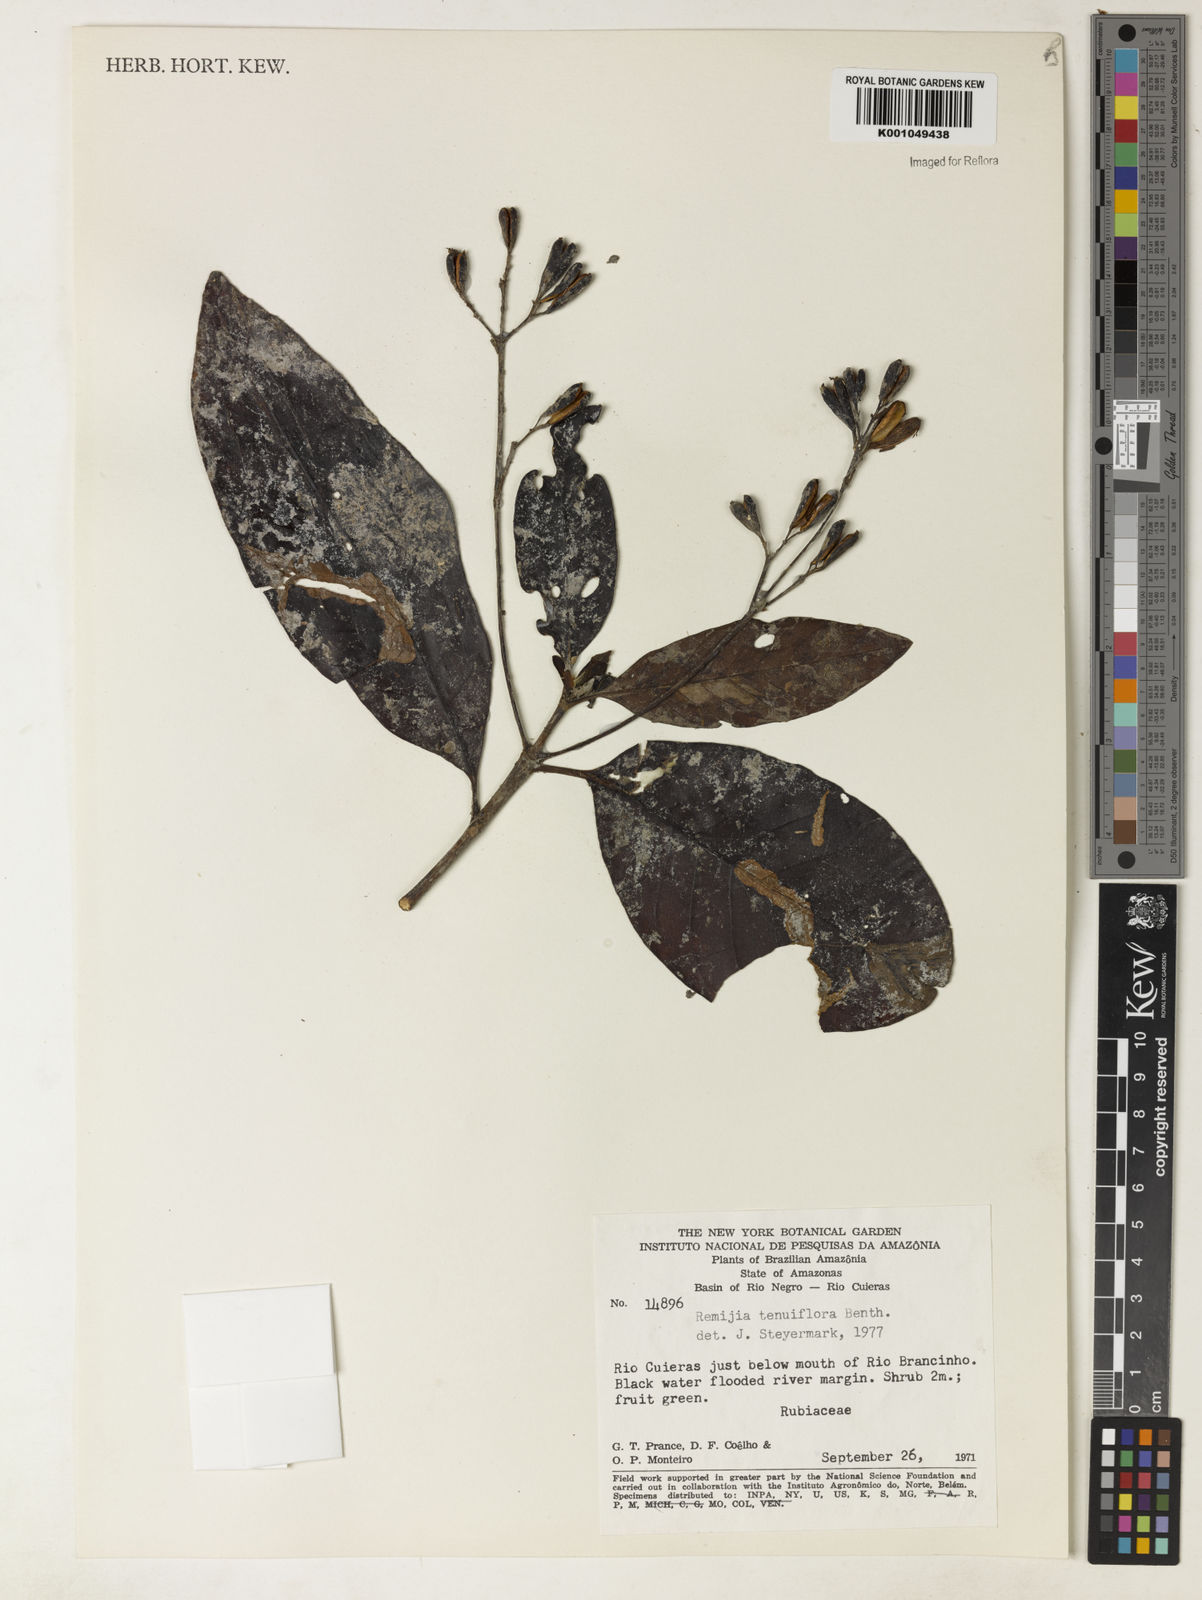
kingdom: Plantae
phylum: Tracheophyta
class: Magnoliopsida
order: Gentianales
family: Rubiaceae
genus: Remijia
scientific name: Remijia tenuiflora
